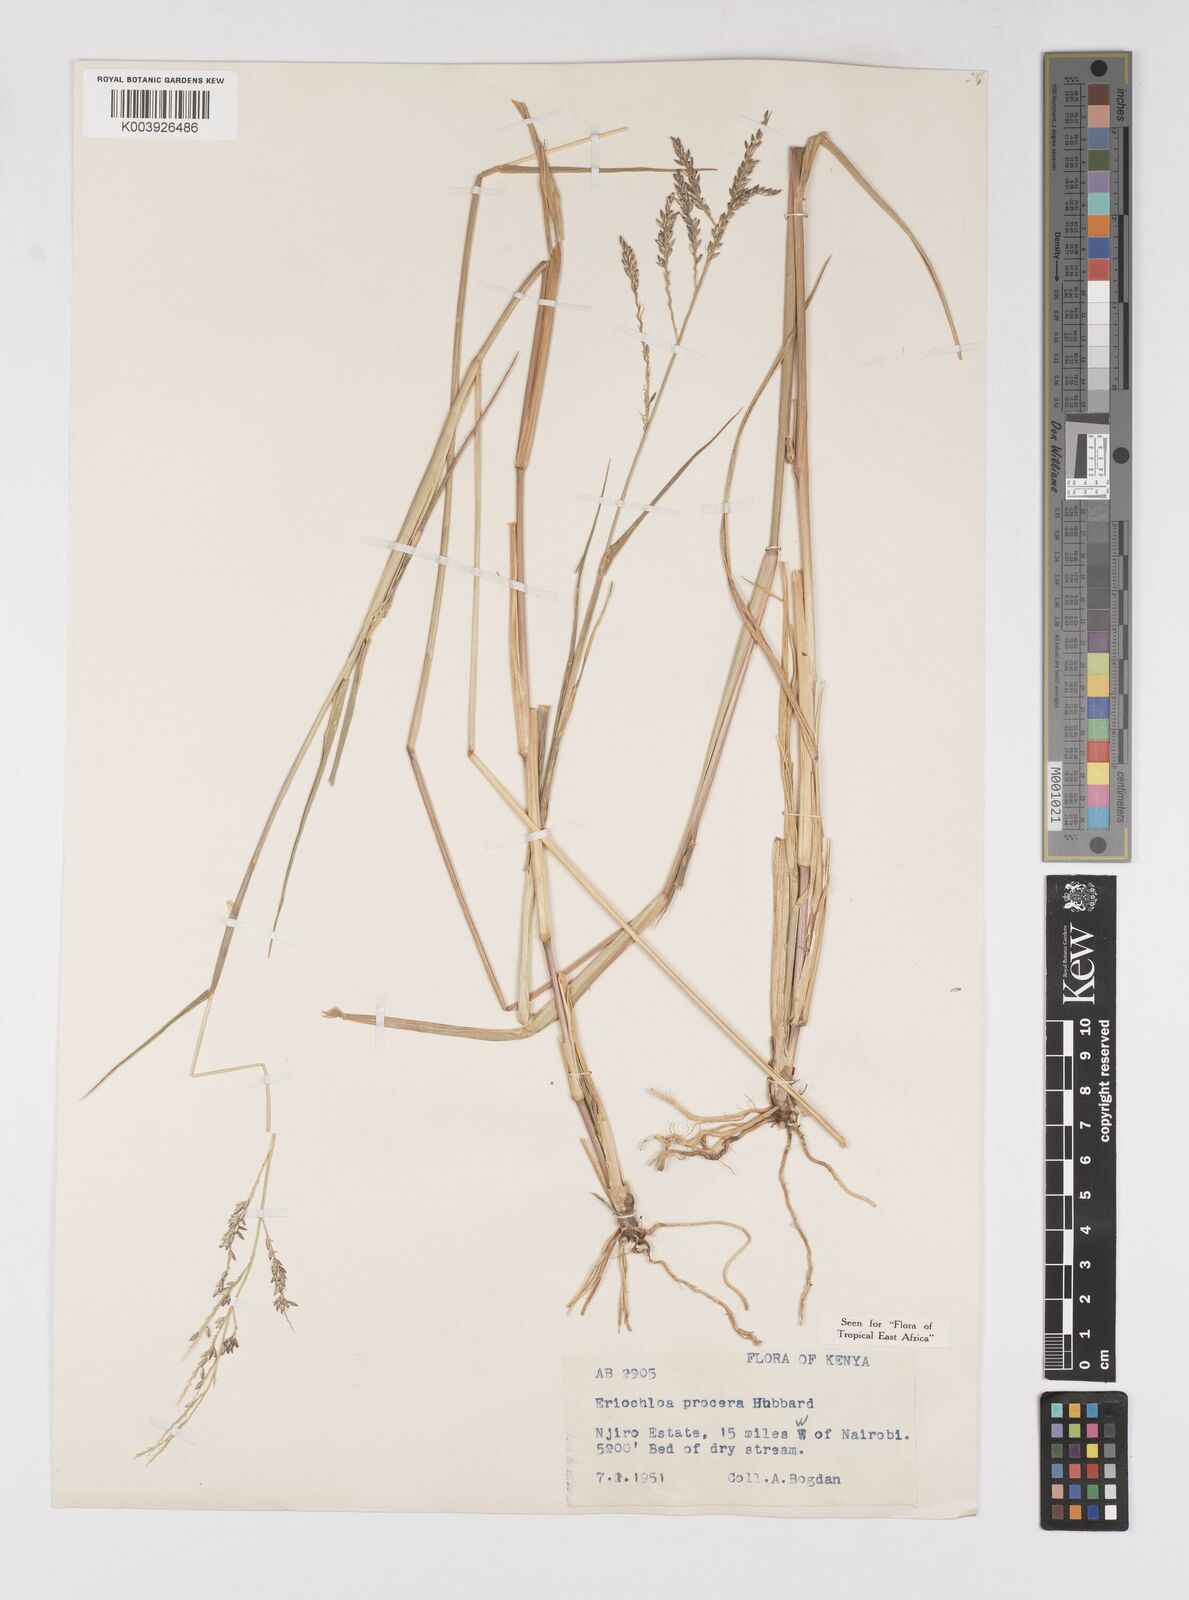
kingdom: Plantae
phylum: Tracheophyta
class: Liliopsida
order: Poales
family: Poaceae
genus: Eriochloa
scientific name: Eriochloa procera
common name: Spring grass
